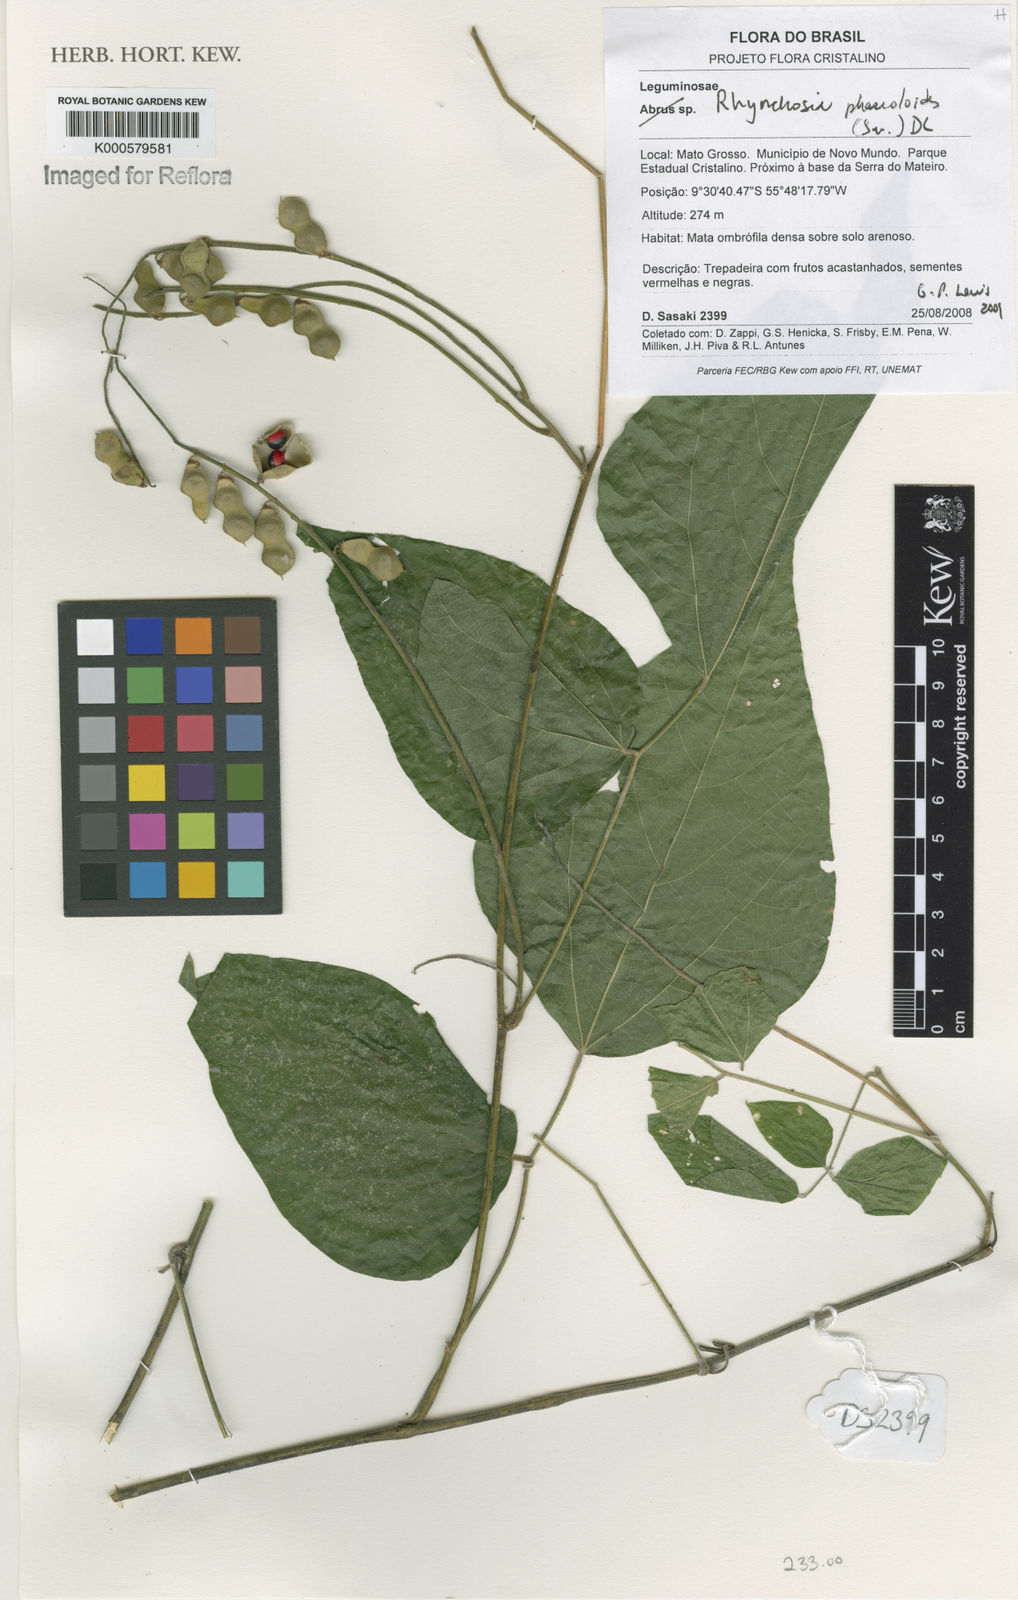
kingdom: Plantae
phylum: Tracheophyta
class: Magnoliopsida
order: Fabales
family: Fabaceae
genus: Rhynchosia
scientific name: Rhynchosia phaseoloides
